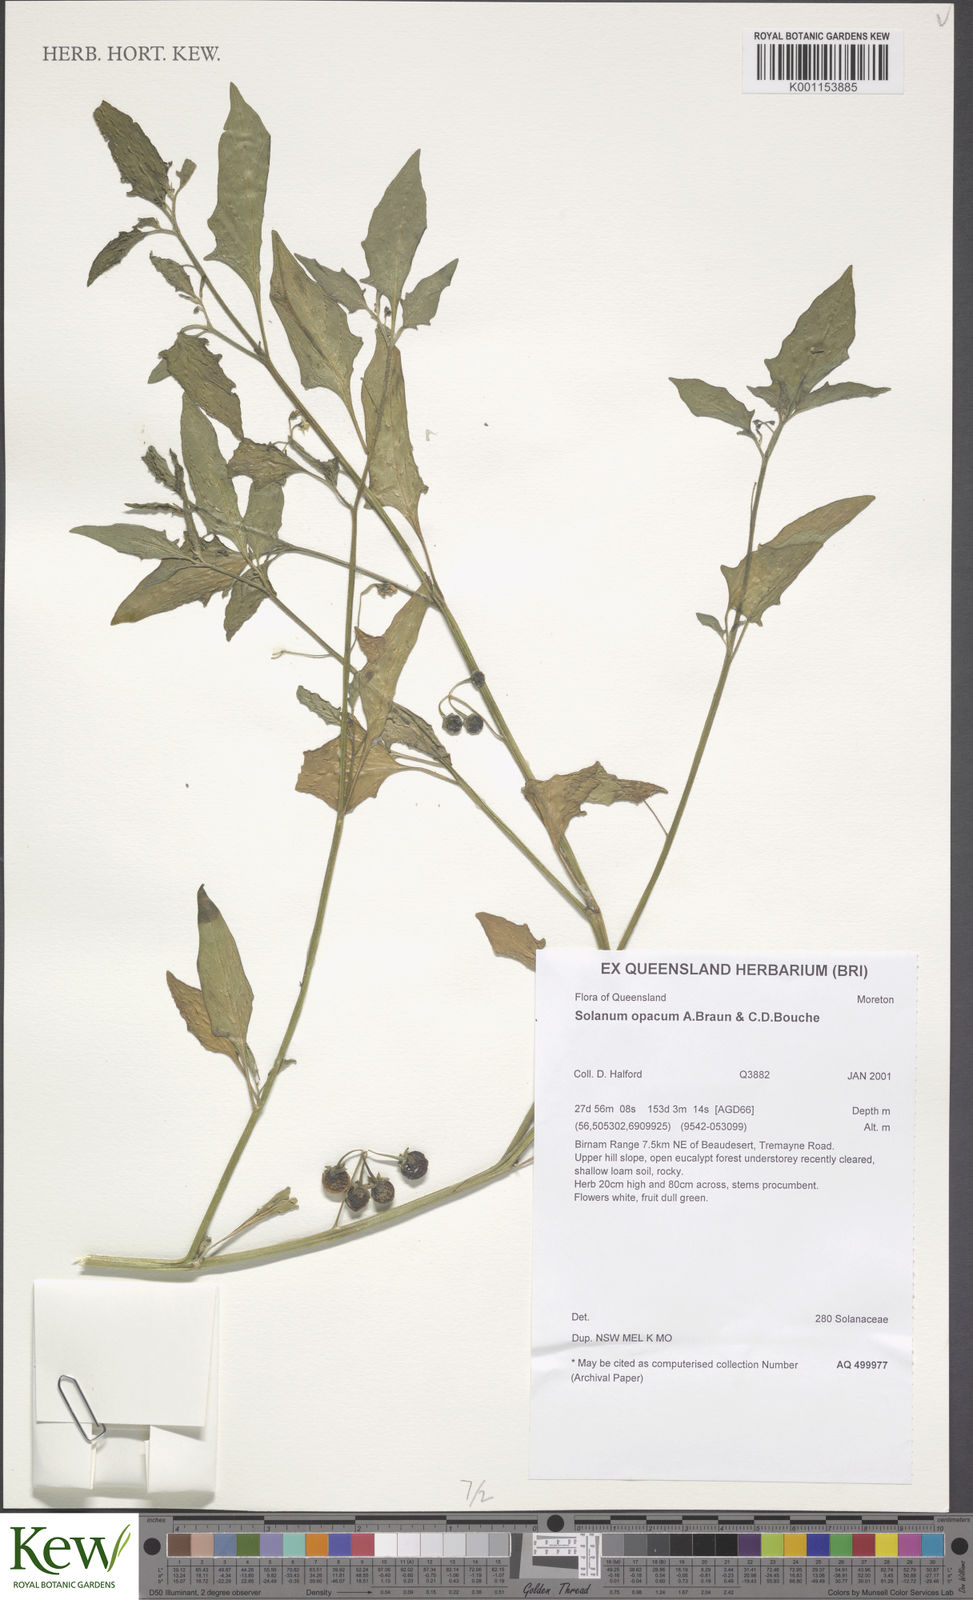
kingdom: Plantae
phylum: Tracheophyta
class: Magnoliopsida
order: Solanales
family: Solanaceae
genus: Solanum
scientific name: Solanum
